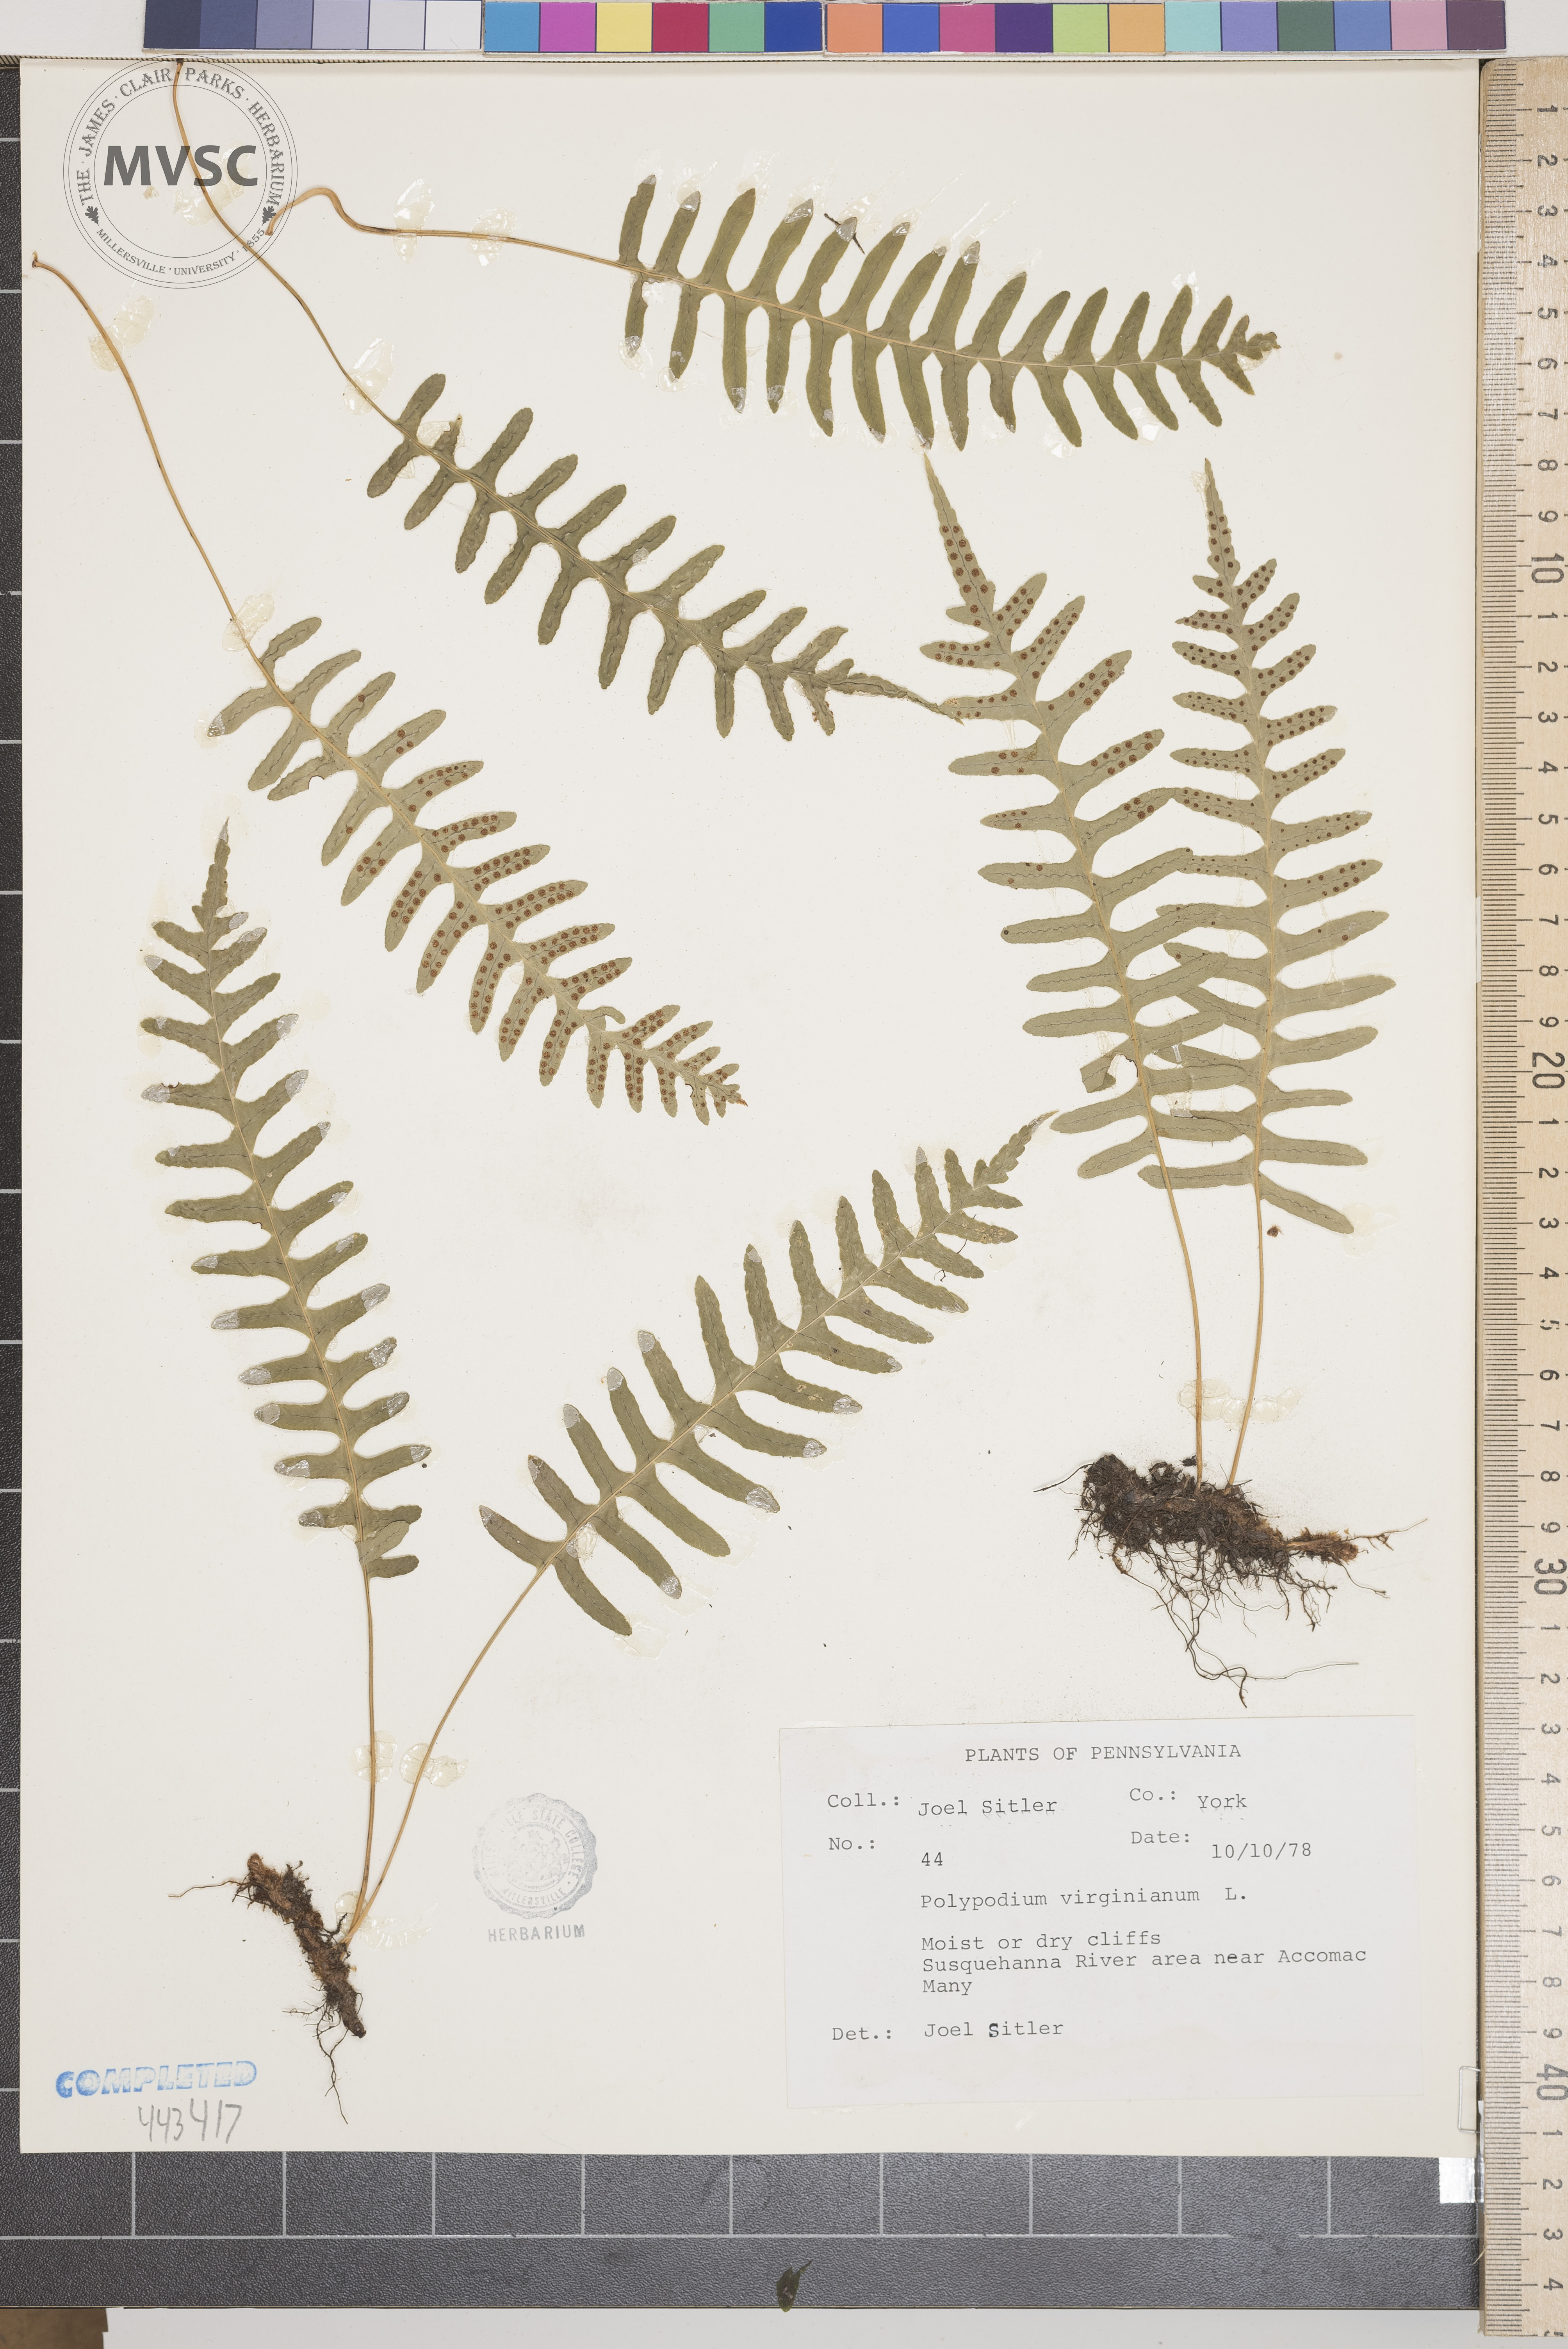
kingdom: Plantae
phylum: Tracheophyta
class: Polypodiopsida
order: Polypodiales
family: Polypodiaceae
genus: Polypodium
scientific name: Polypodium virginianum
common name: American wall fern
